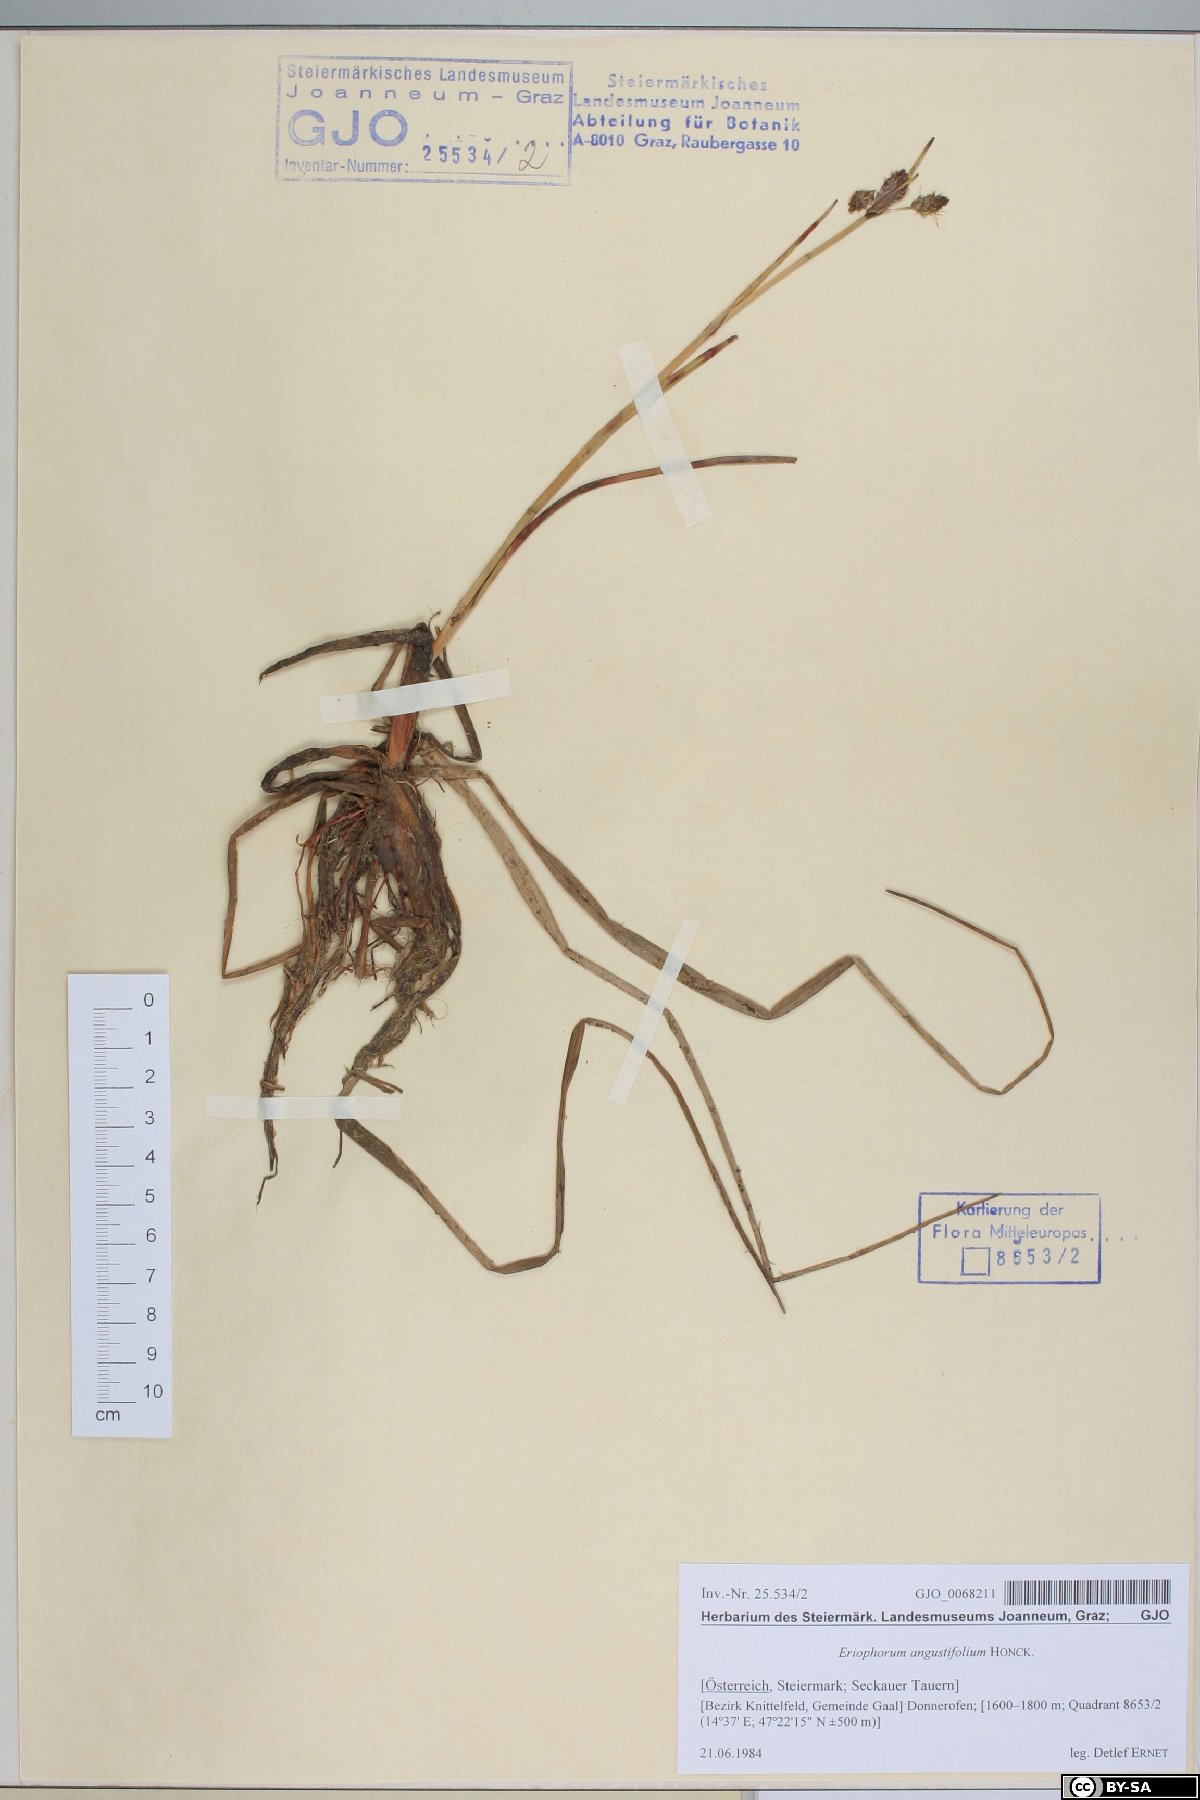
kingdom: Plantae
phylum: Tracheophyta
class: Liliopsida
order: Poales
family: Cyperaceae
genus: Eriophorum
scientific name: Eriophorum angustifolium
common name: Common cottongrass
